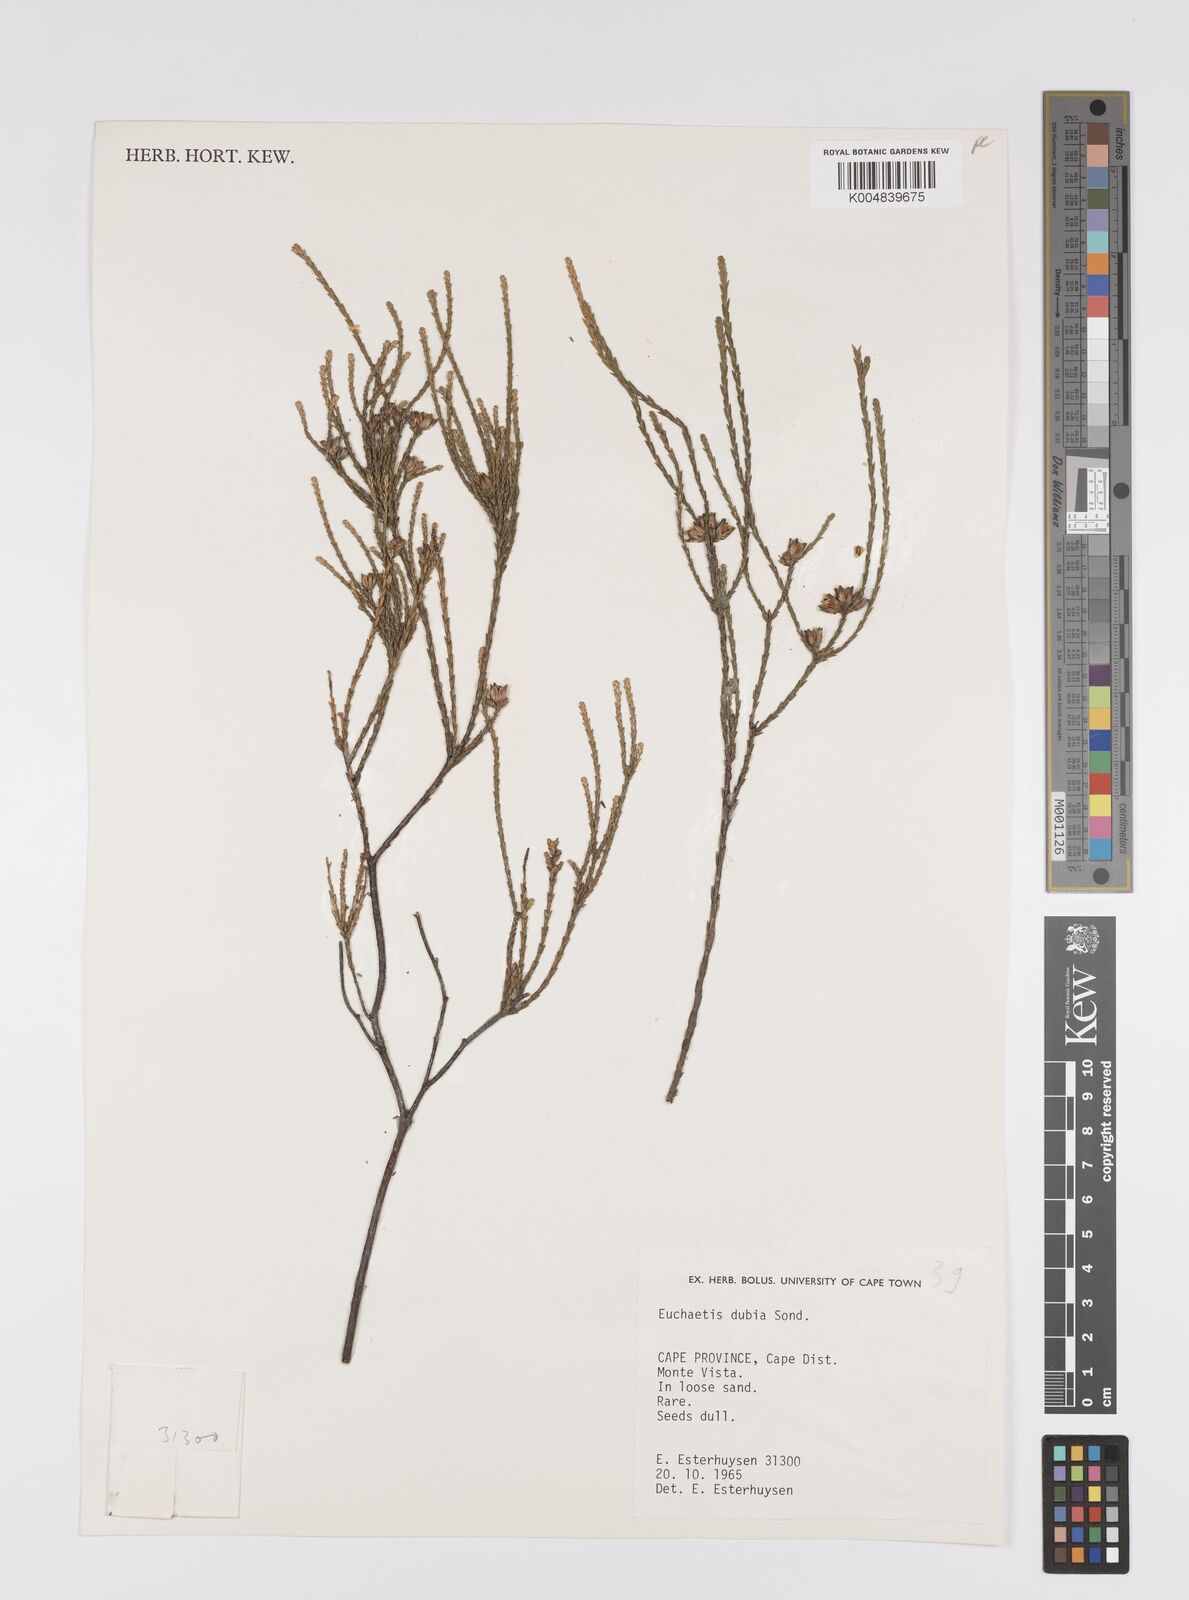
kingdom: Plantae
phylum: Tracheophyta
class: Magnoliopsida
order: Sapindales
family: Rutaceae
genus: Macrostylis
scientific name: Macrostylis cassiopoides
